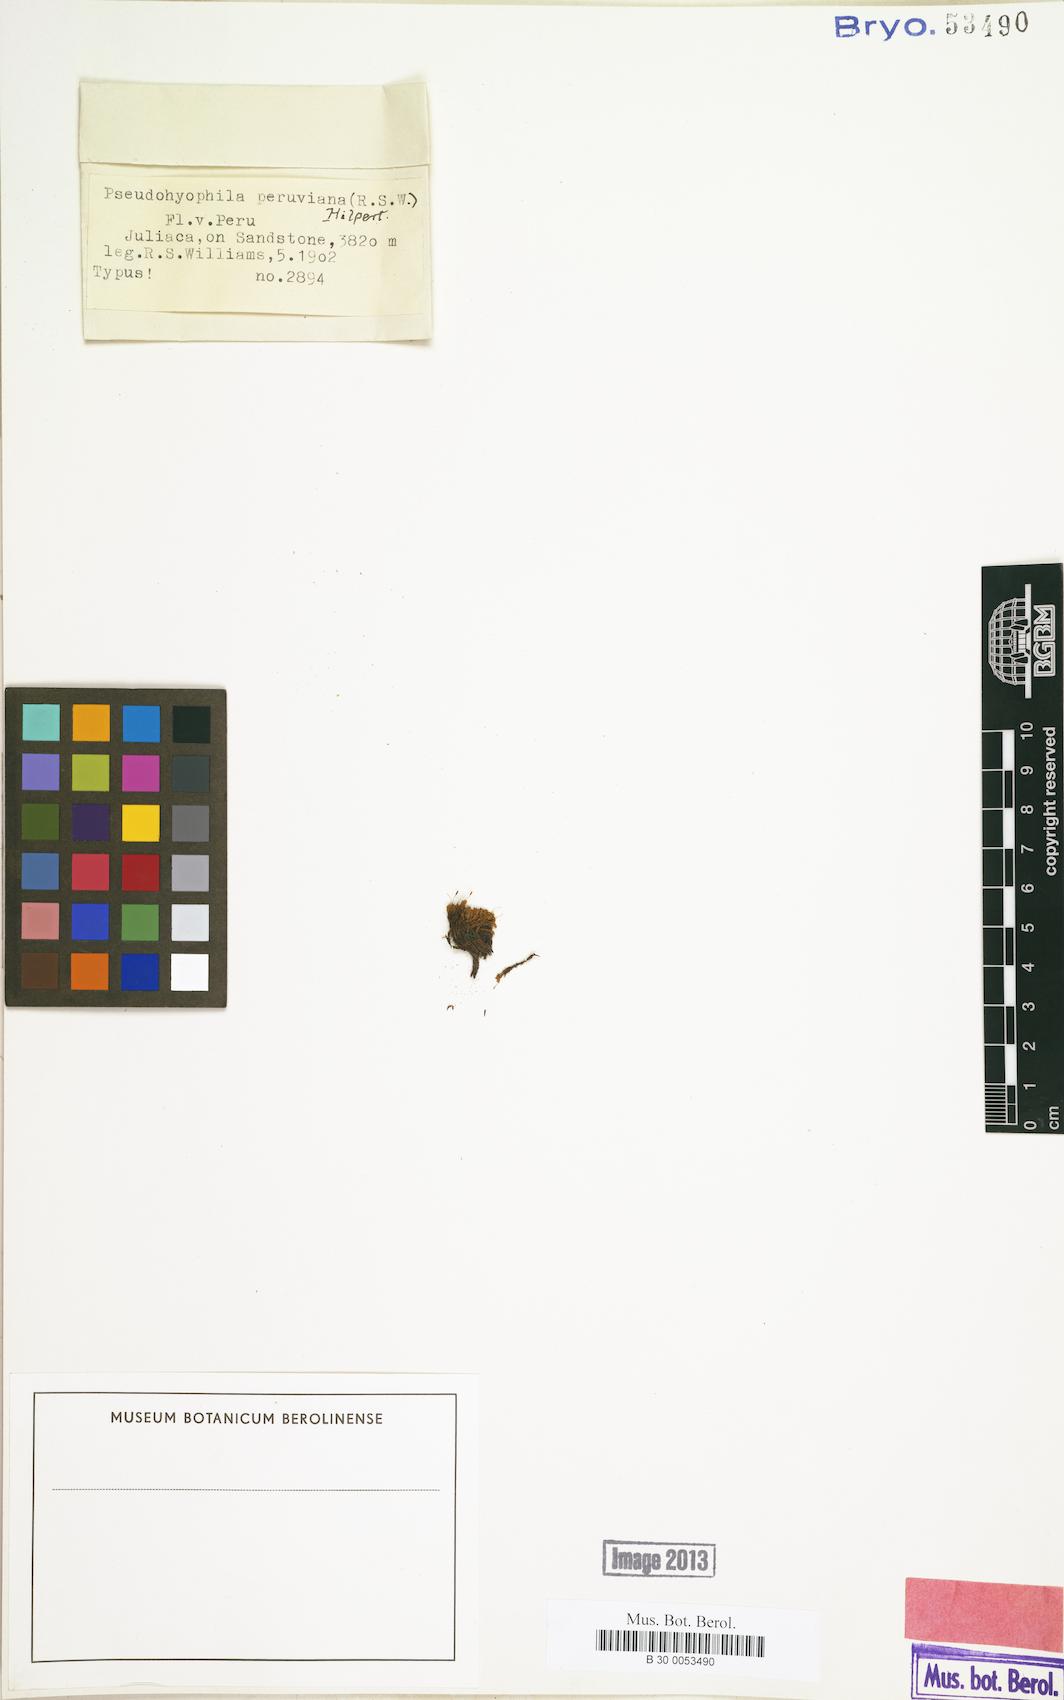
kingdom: Plantae
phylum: Bryophyta
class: Bryopsida
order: Dicranales
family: Rhabdoweisiaceae
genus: Cynodontium
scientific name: Cynodontium peruvianum
